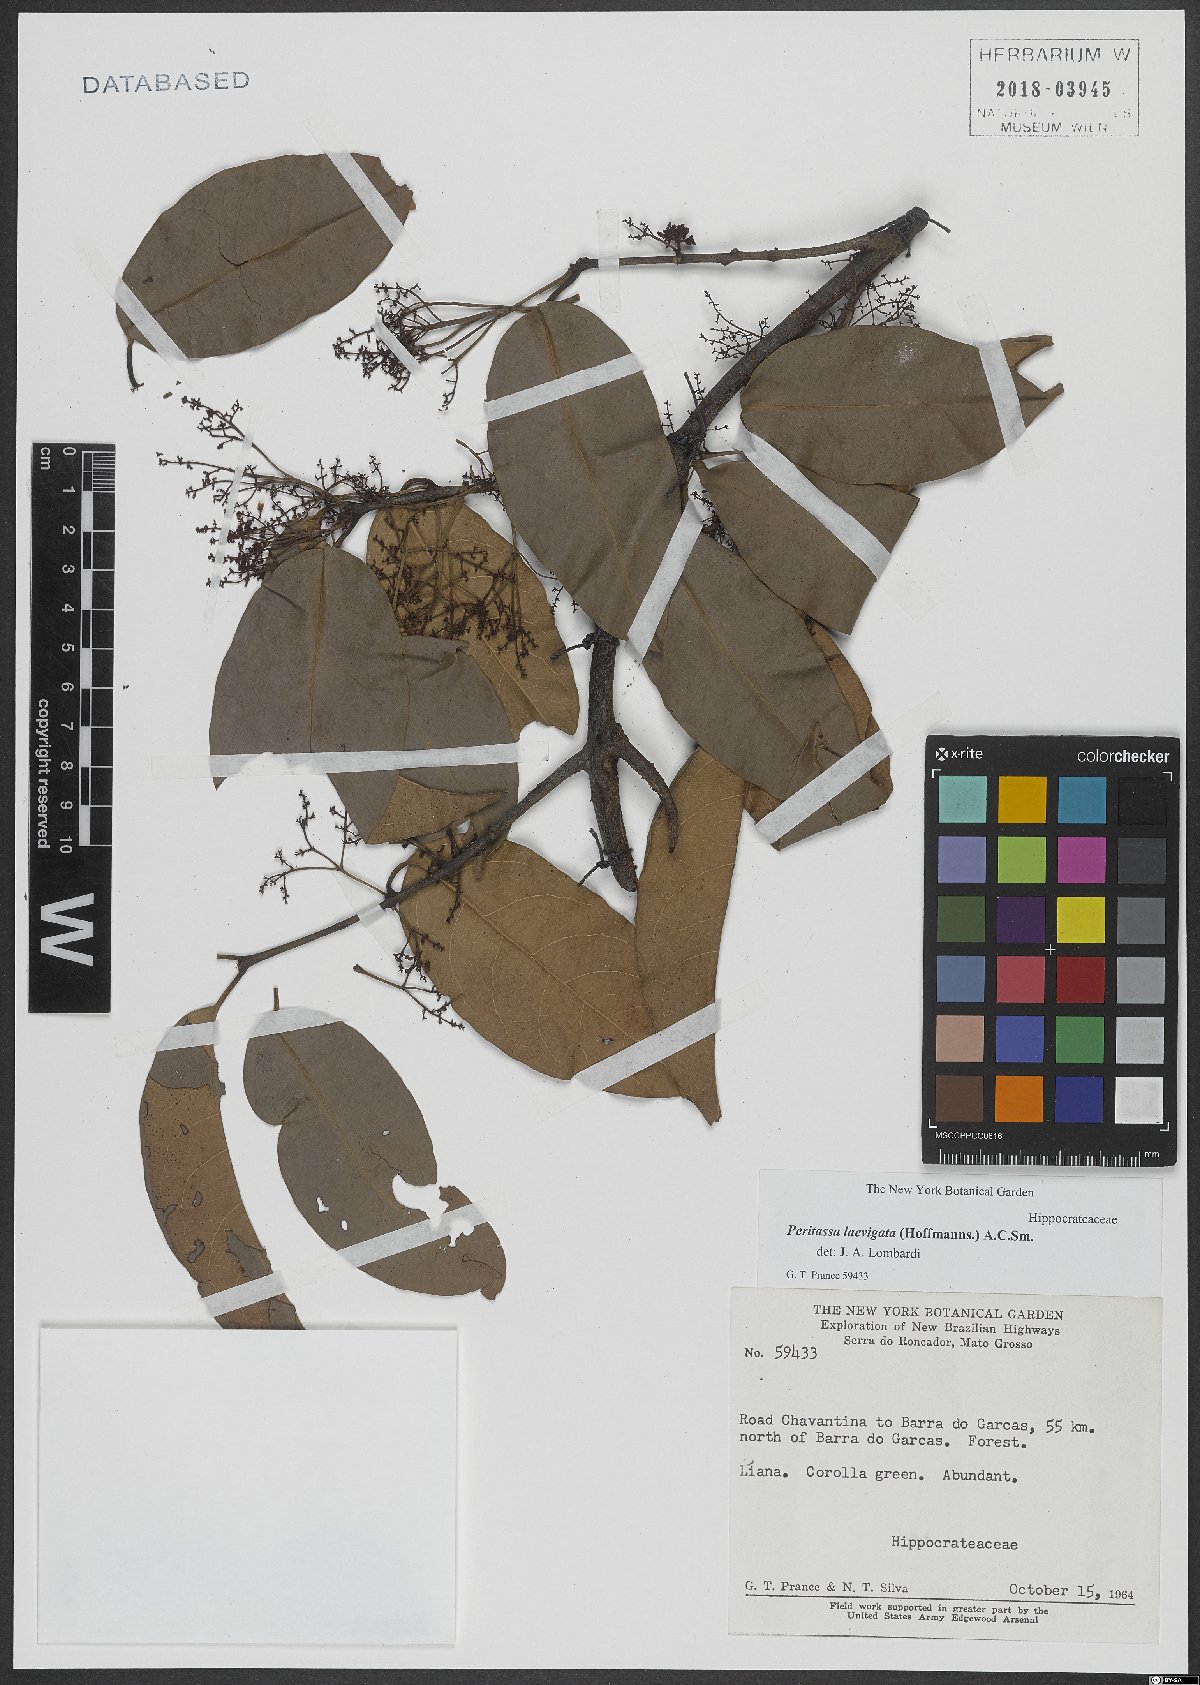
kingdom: Plantae
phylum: Tracheophyta
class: Magnoliopsida
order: Celastrales
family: Celastraceae
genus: Peritassa
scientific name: Peritassa laevigata
